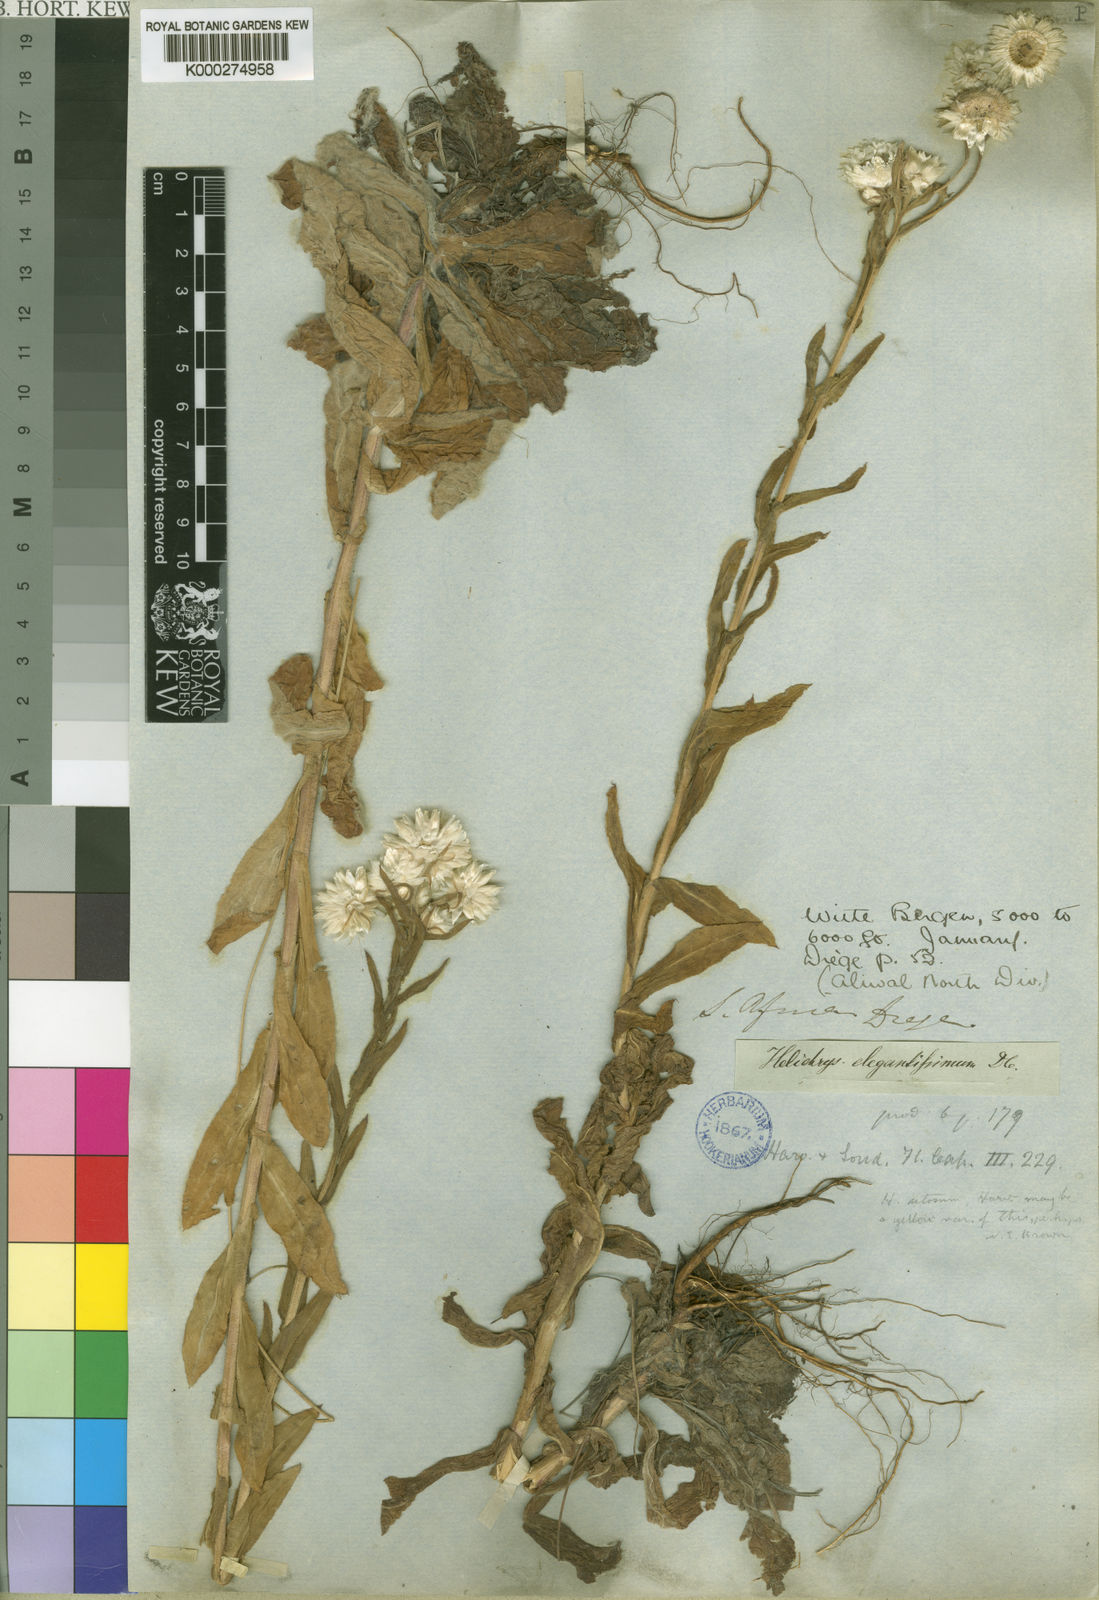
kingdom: Plantae
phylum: Tracheophyta
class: Magnoliopsida
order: Asterales
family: Asteraceae
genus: Helichrysum
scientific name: Helichrysum elegantissimum
